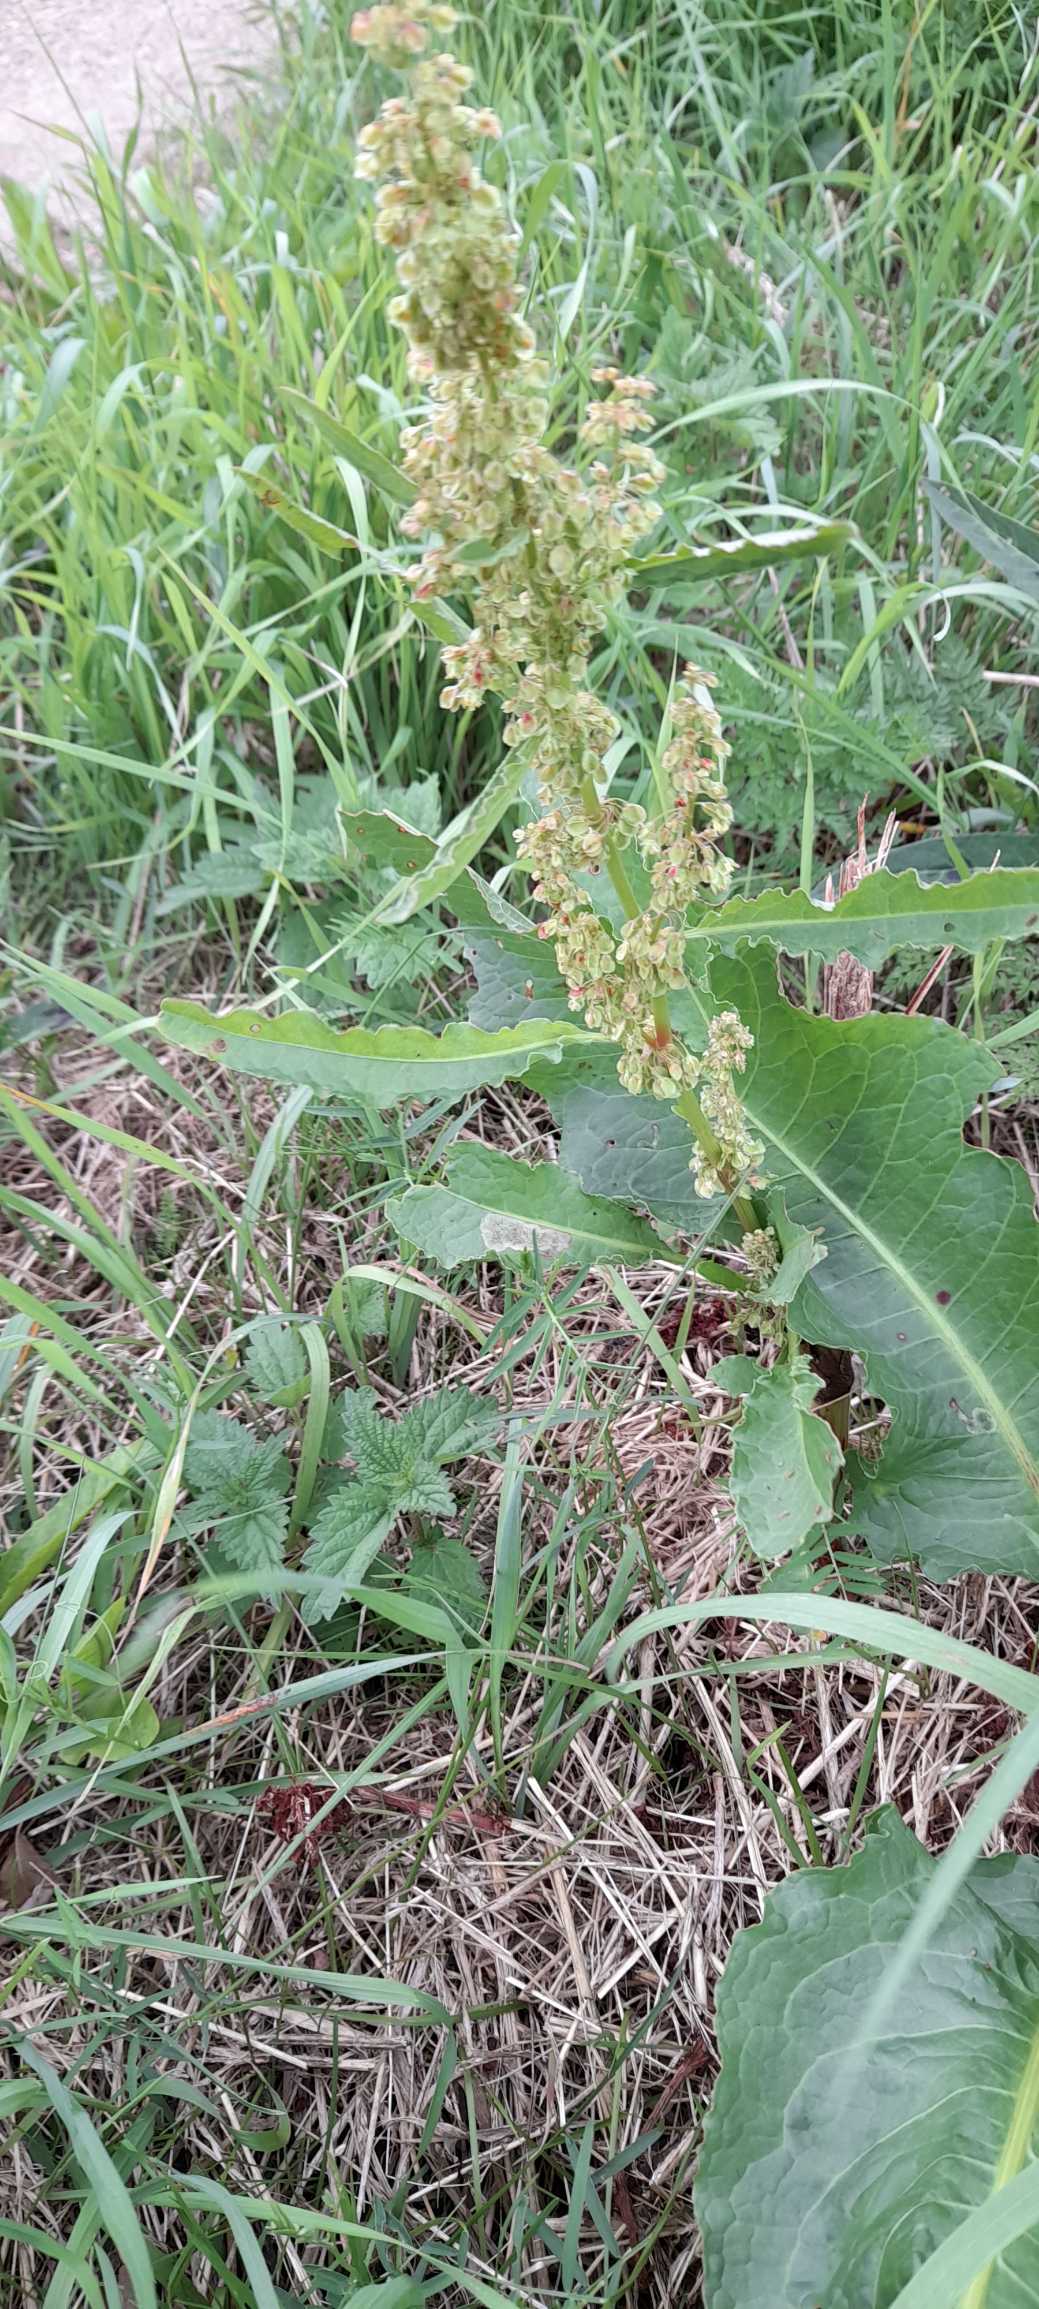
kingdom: Plantae
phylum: Tracheophyta
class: Magnoliopsida
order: Caryophyllales
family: Polygonaceae
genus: Rumex
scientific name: Rumex longifolius
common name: By-skræppe
